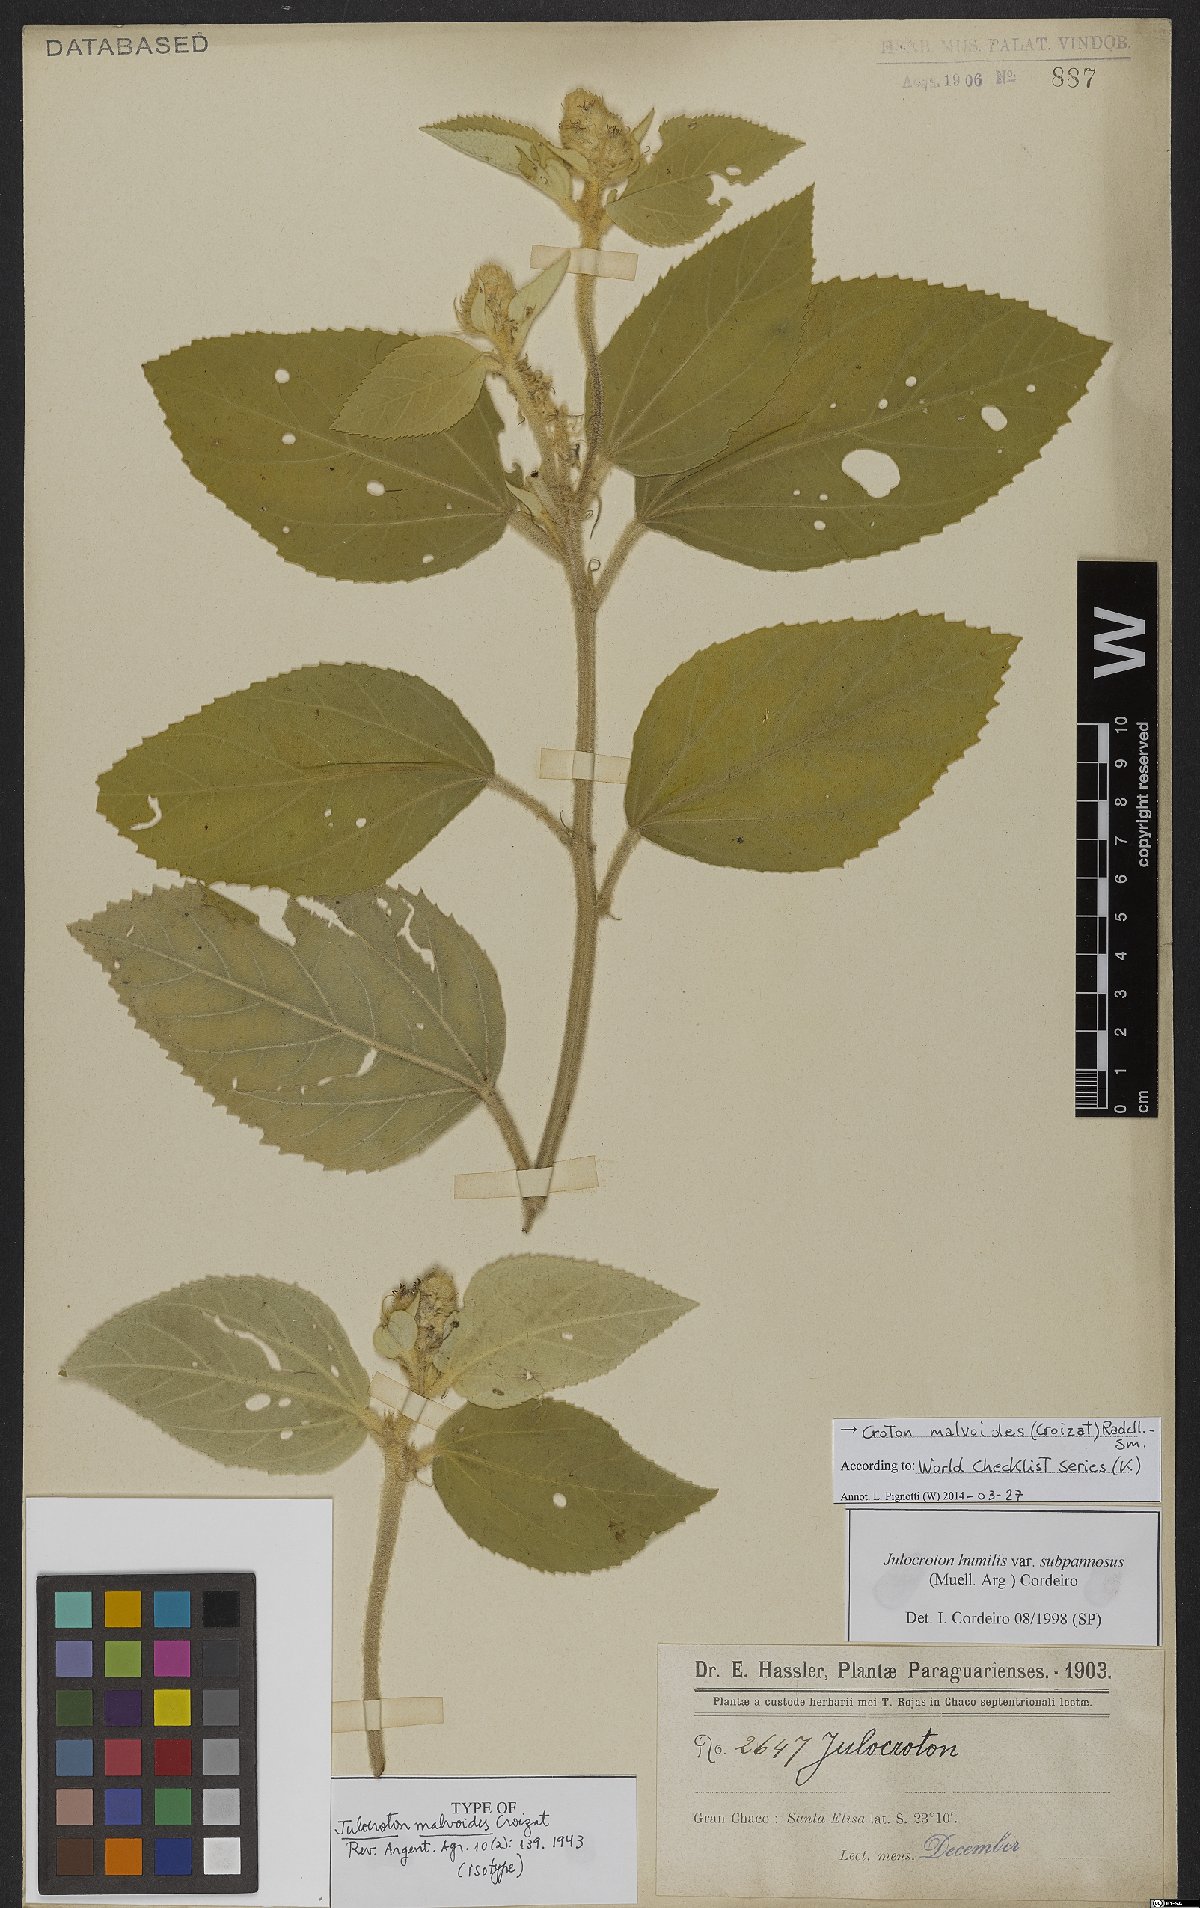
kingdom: Plantae
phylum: Tracheophyta
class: Magnoliopsida
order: Malpighiales
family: Euphorbiaceae
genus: Croton
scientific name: Croton malvoides
